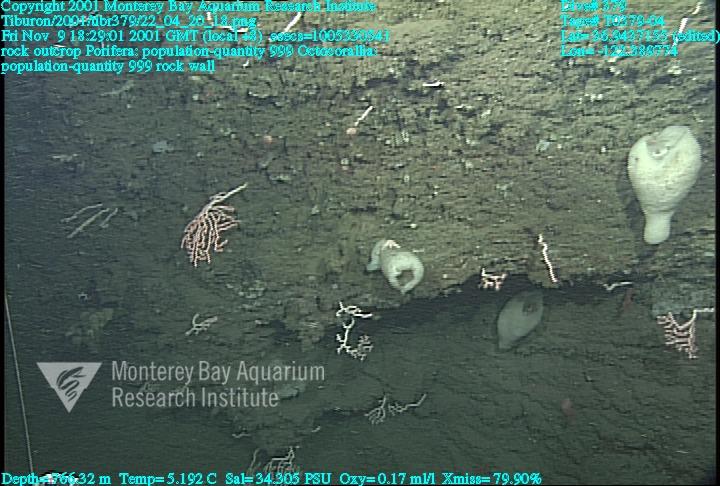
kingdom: Animalia
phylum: Porifera
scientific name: Porifera
